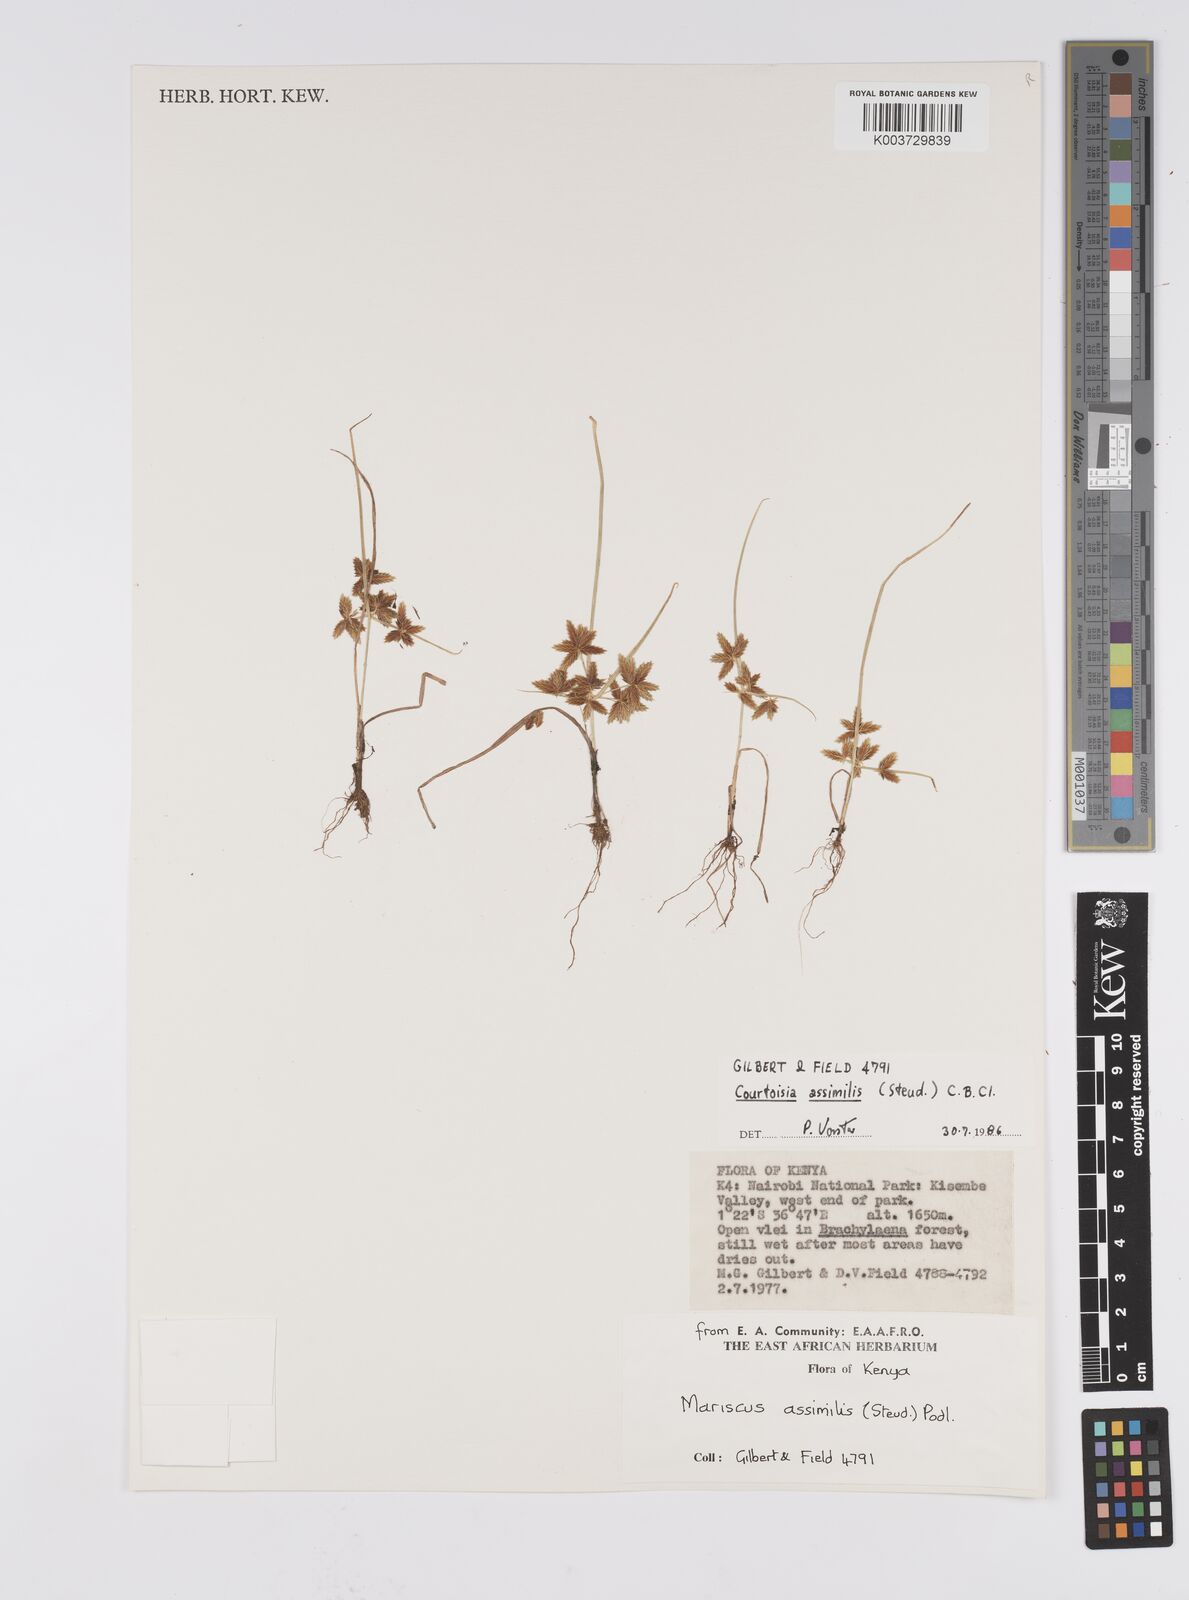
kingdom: Plantae
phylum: Tracheophyta
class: Liliopsida
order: Poales
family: Cyperaceae
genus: Cyperus
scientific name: Cyperus assimilis
